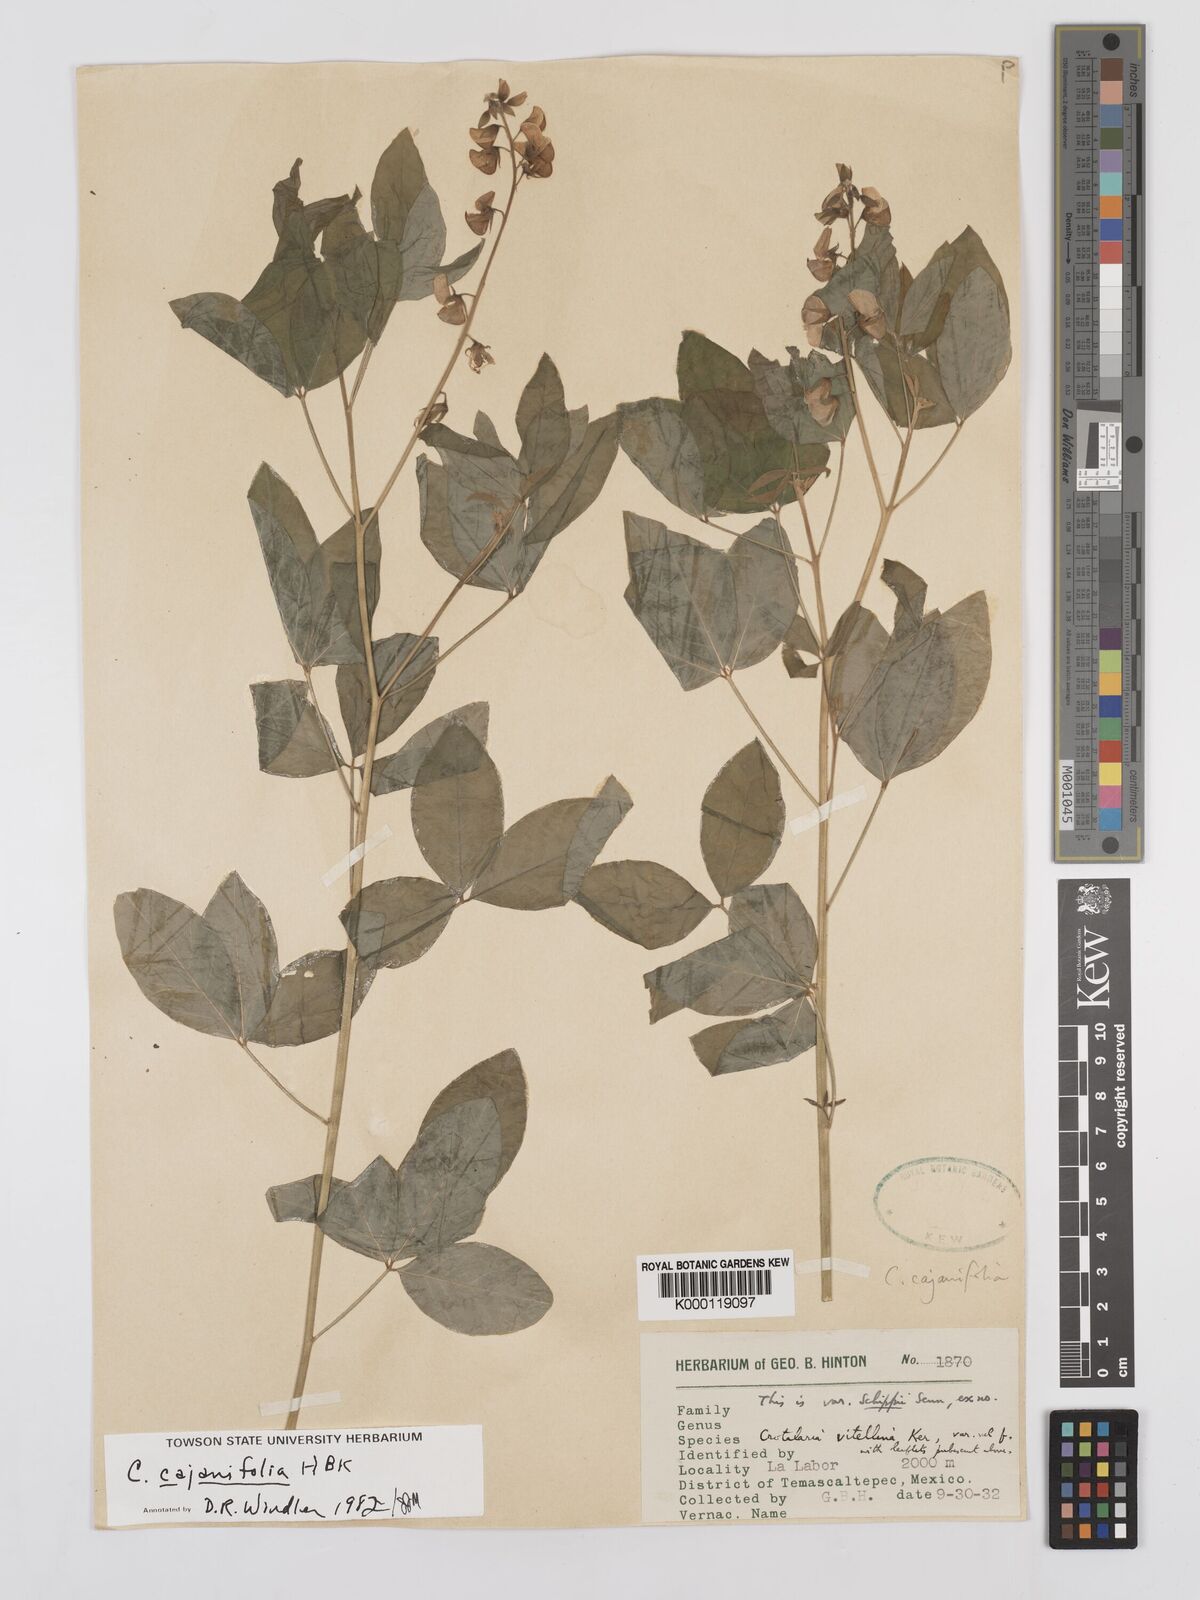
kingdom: Plantae
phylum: Tracheophyta
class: Magnoliopsida
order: Fabales
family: Fabaceae
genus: Crotalaria
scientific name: Crotalaria cajanifolia
